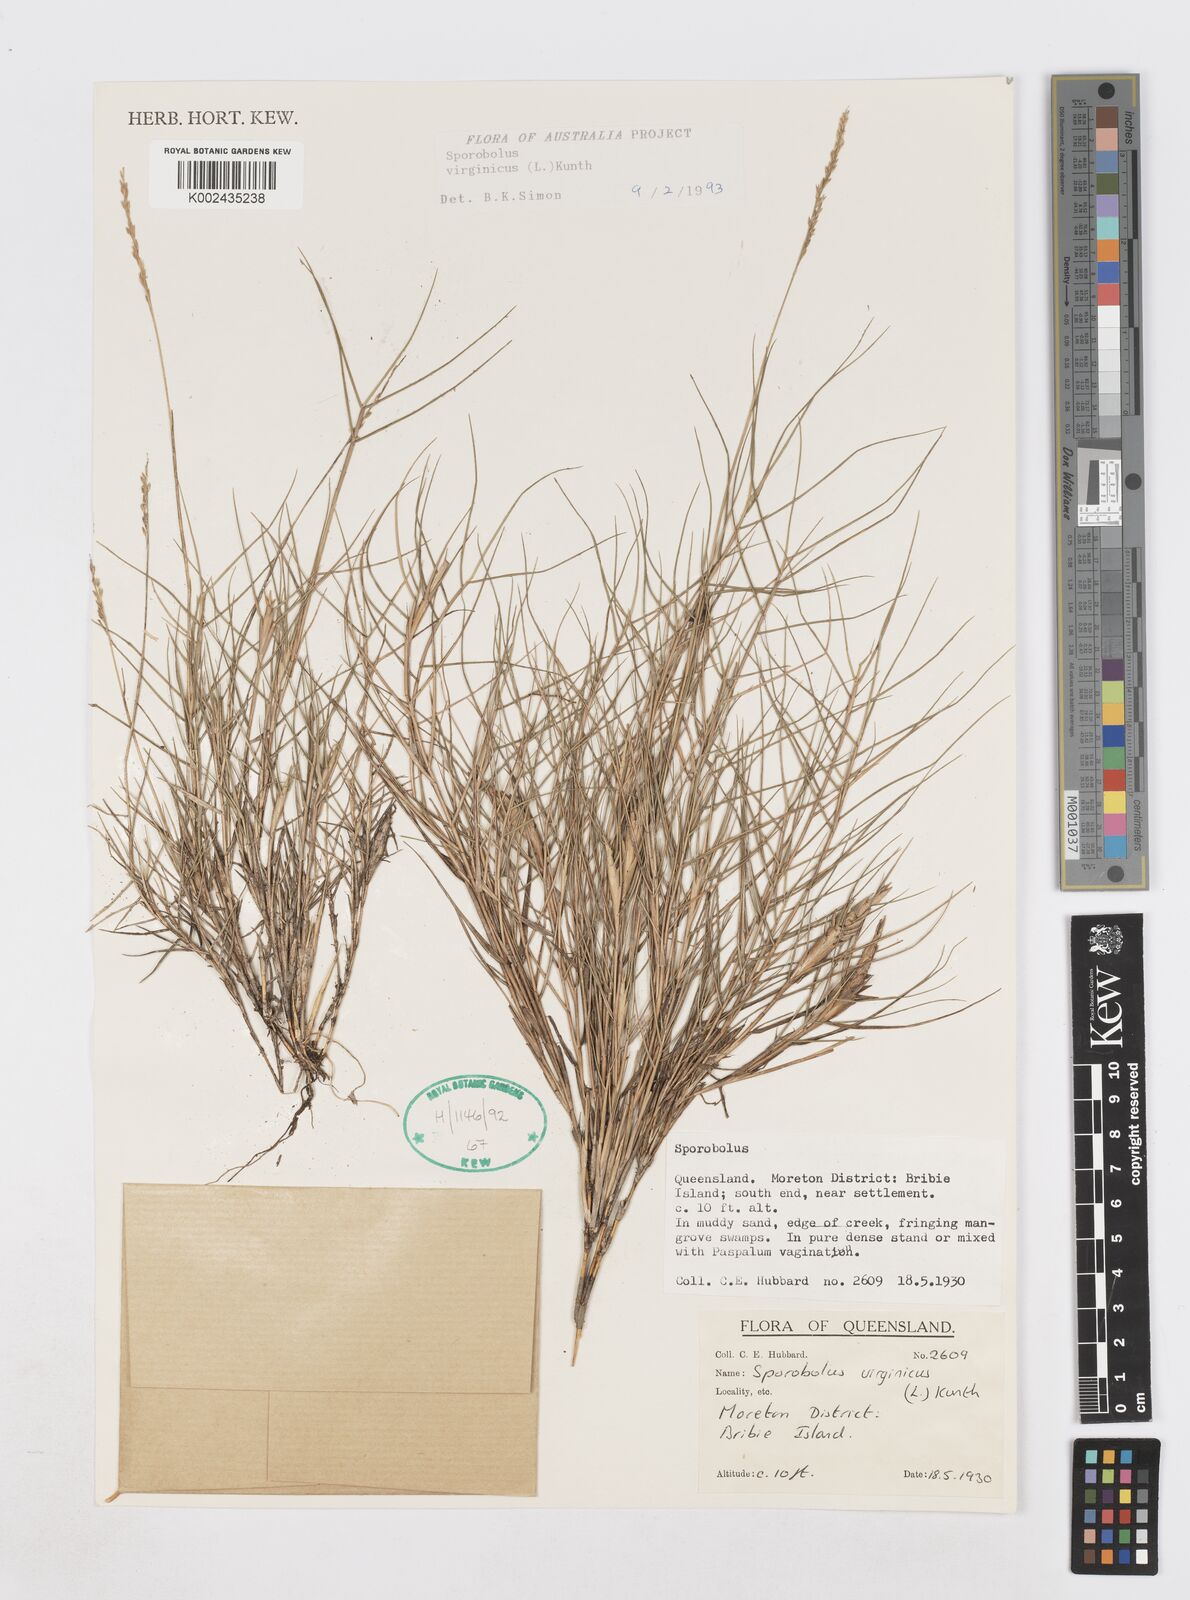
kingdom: Plantae
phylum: Tracheophyta
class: Liliopsida
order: Poales
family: Poaceae
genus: Sporobolus
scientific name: Sporobolus virginicus
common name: Beach dropseed
